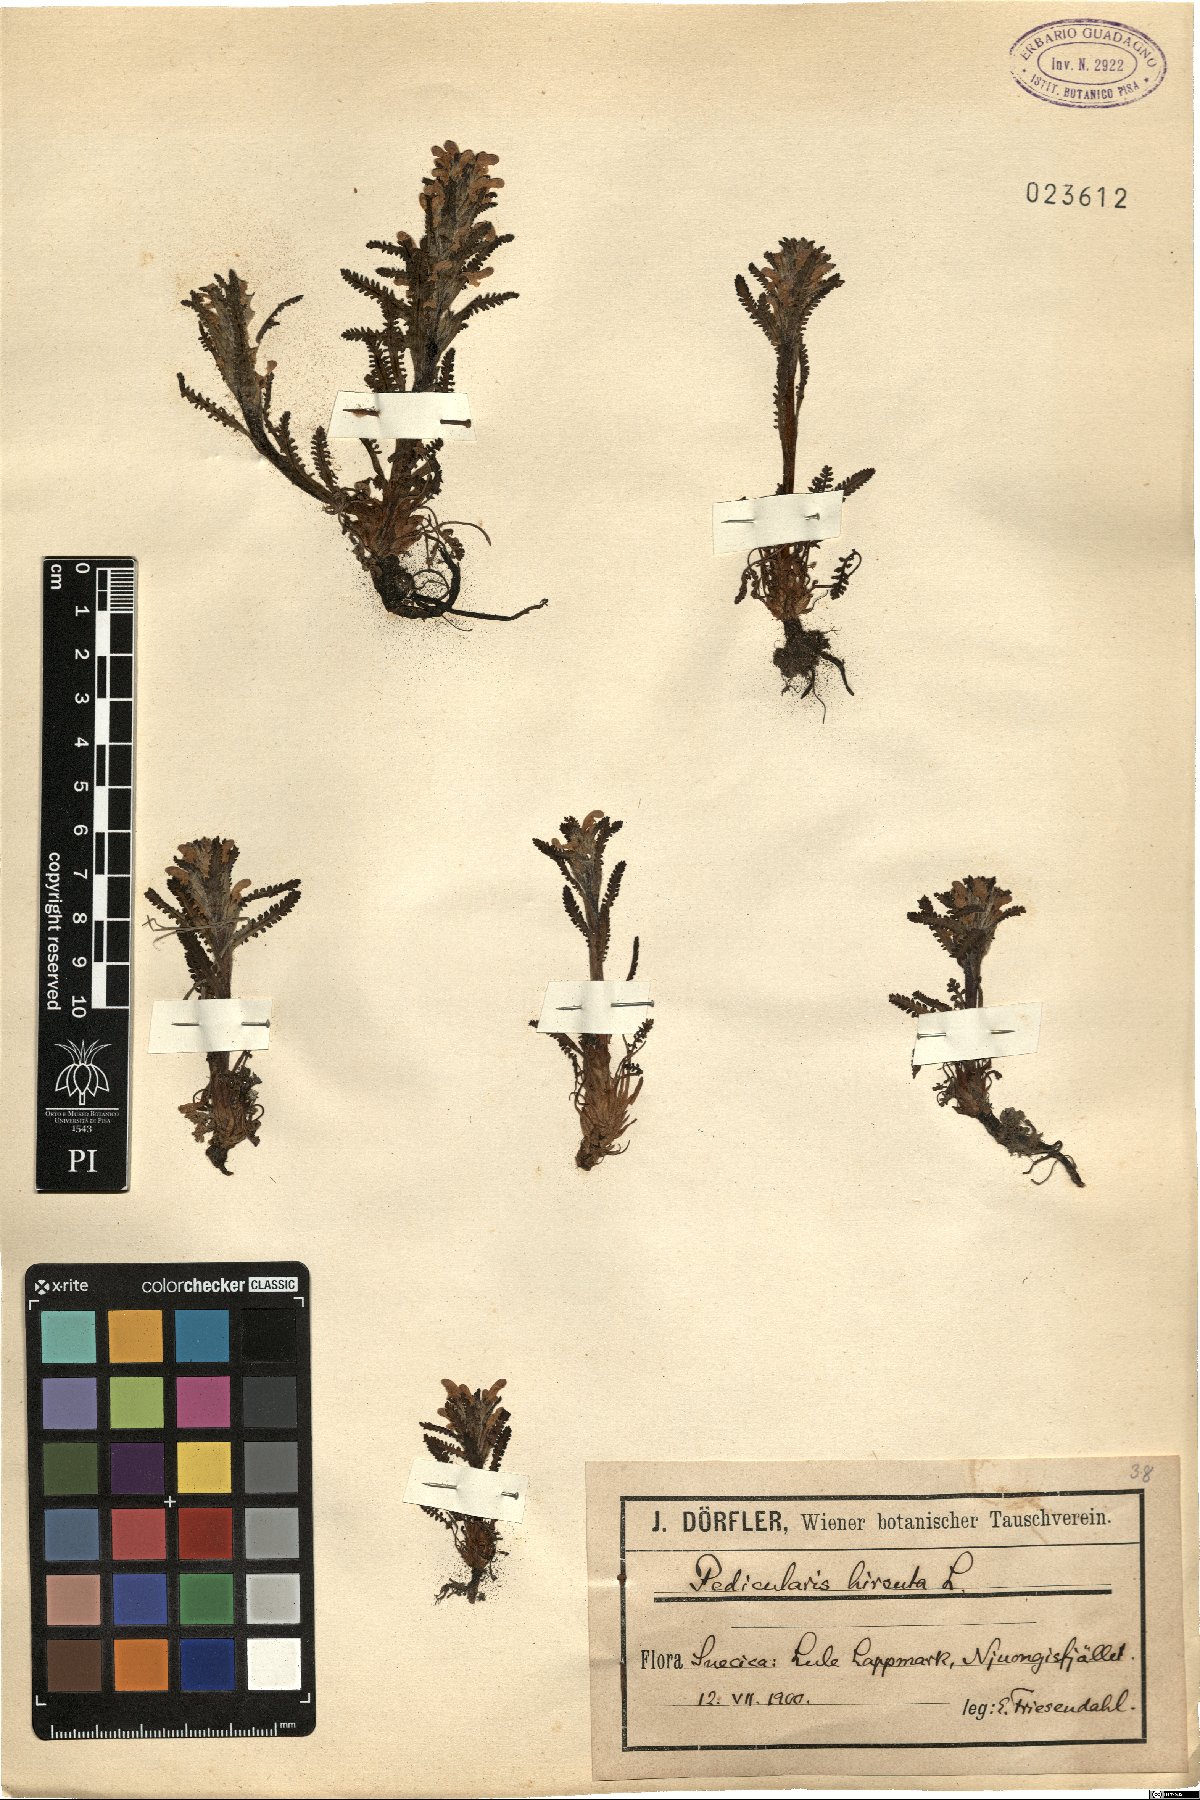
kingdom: Plantae
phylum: Tracheophyta
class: Magnoliopsida
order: Lamiales
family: Orobanchaceae
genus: Pedicularis
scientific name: Pedicularis hirsuta
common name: Hairy lousewort
